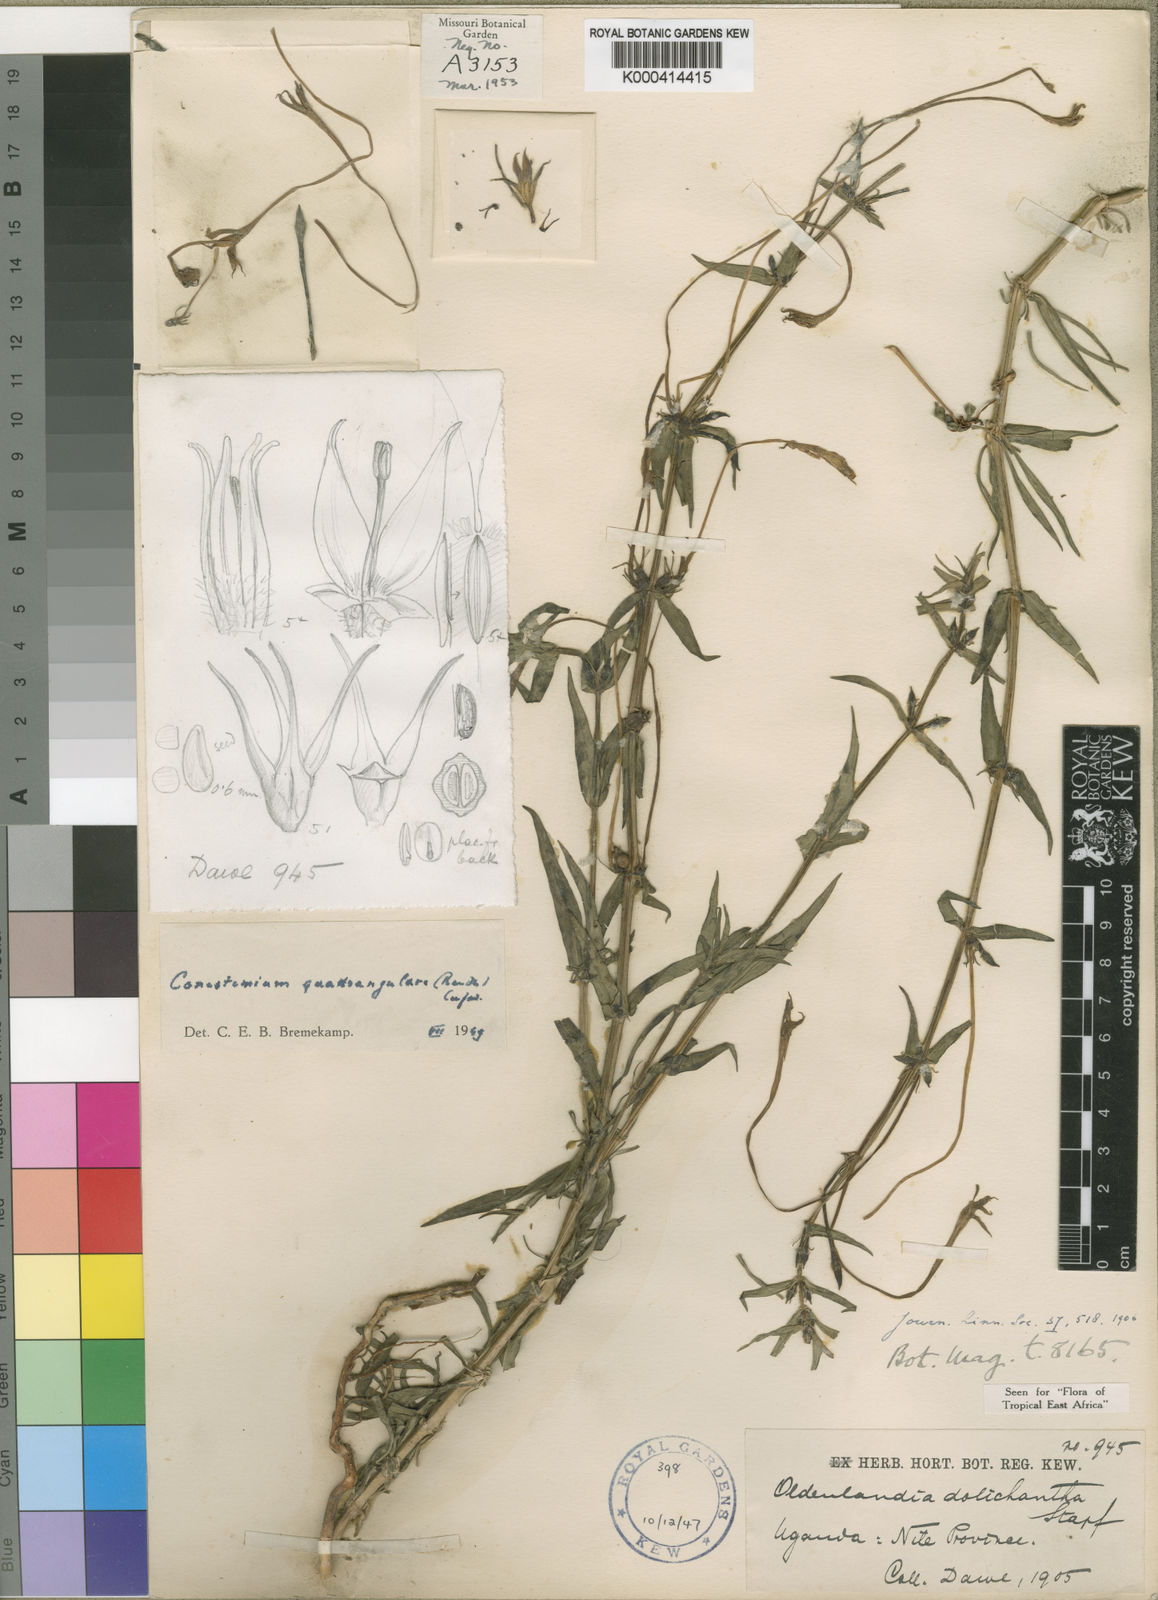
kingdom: Plantae
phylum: Tracheophyta
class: Magnoliopsida
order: Gentianales
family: Rubiaceae
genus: Conostomium
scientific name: Conostomium quadrangulare
